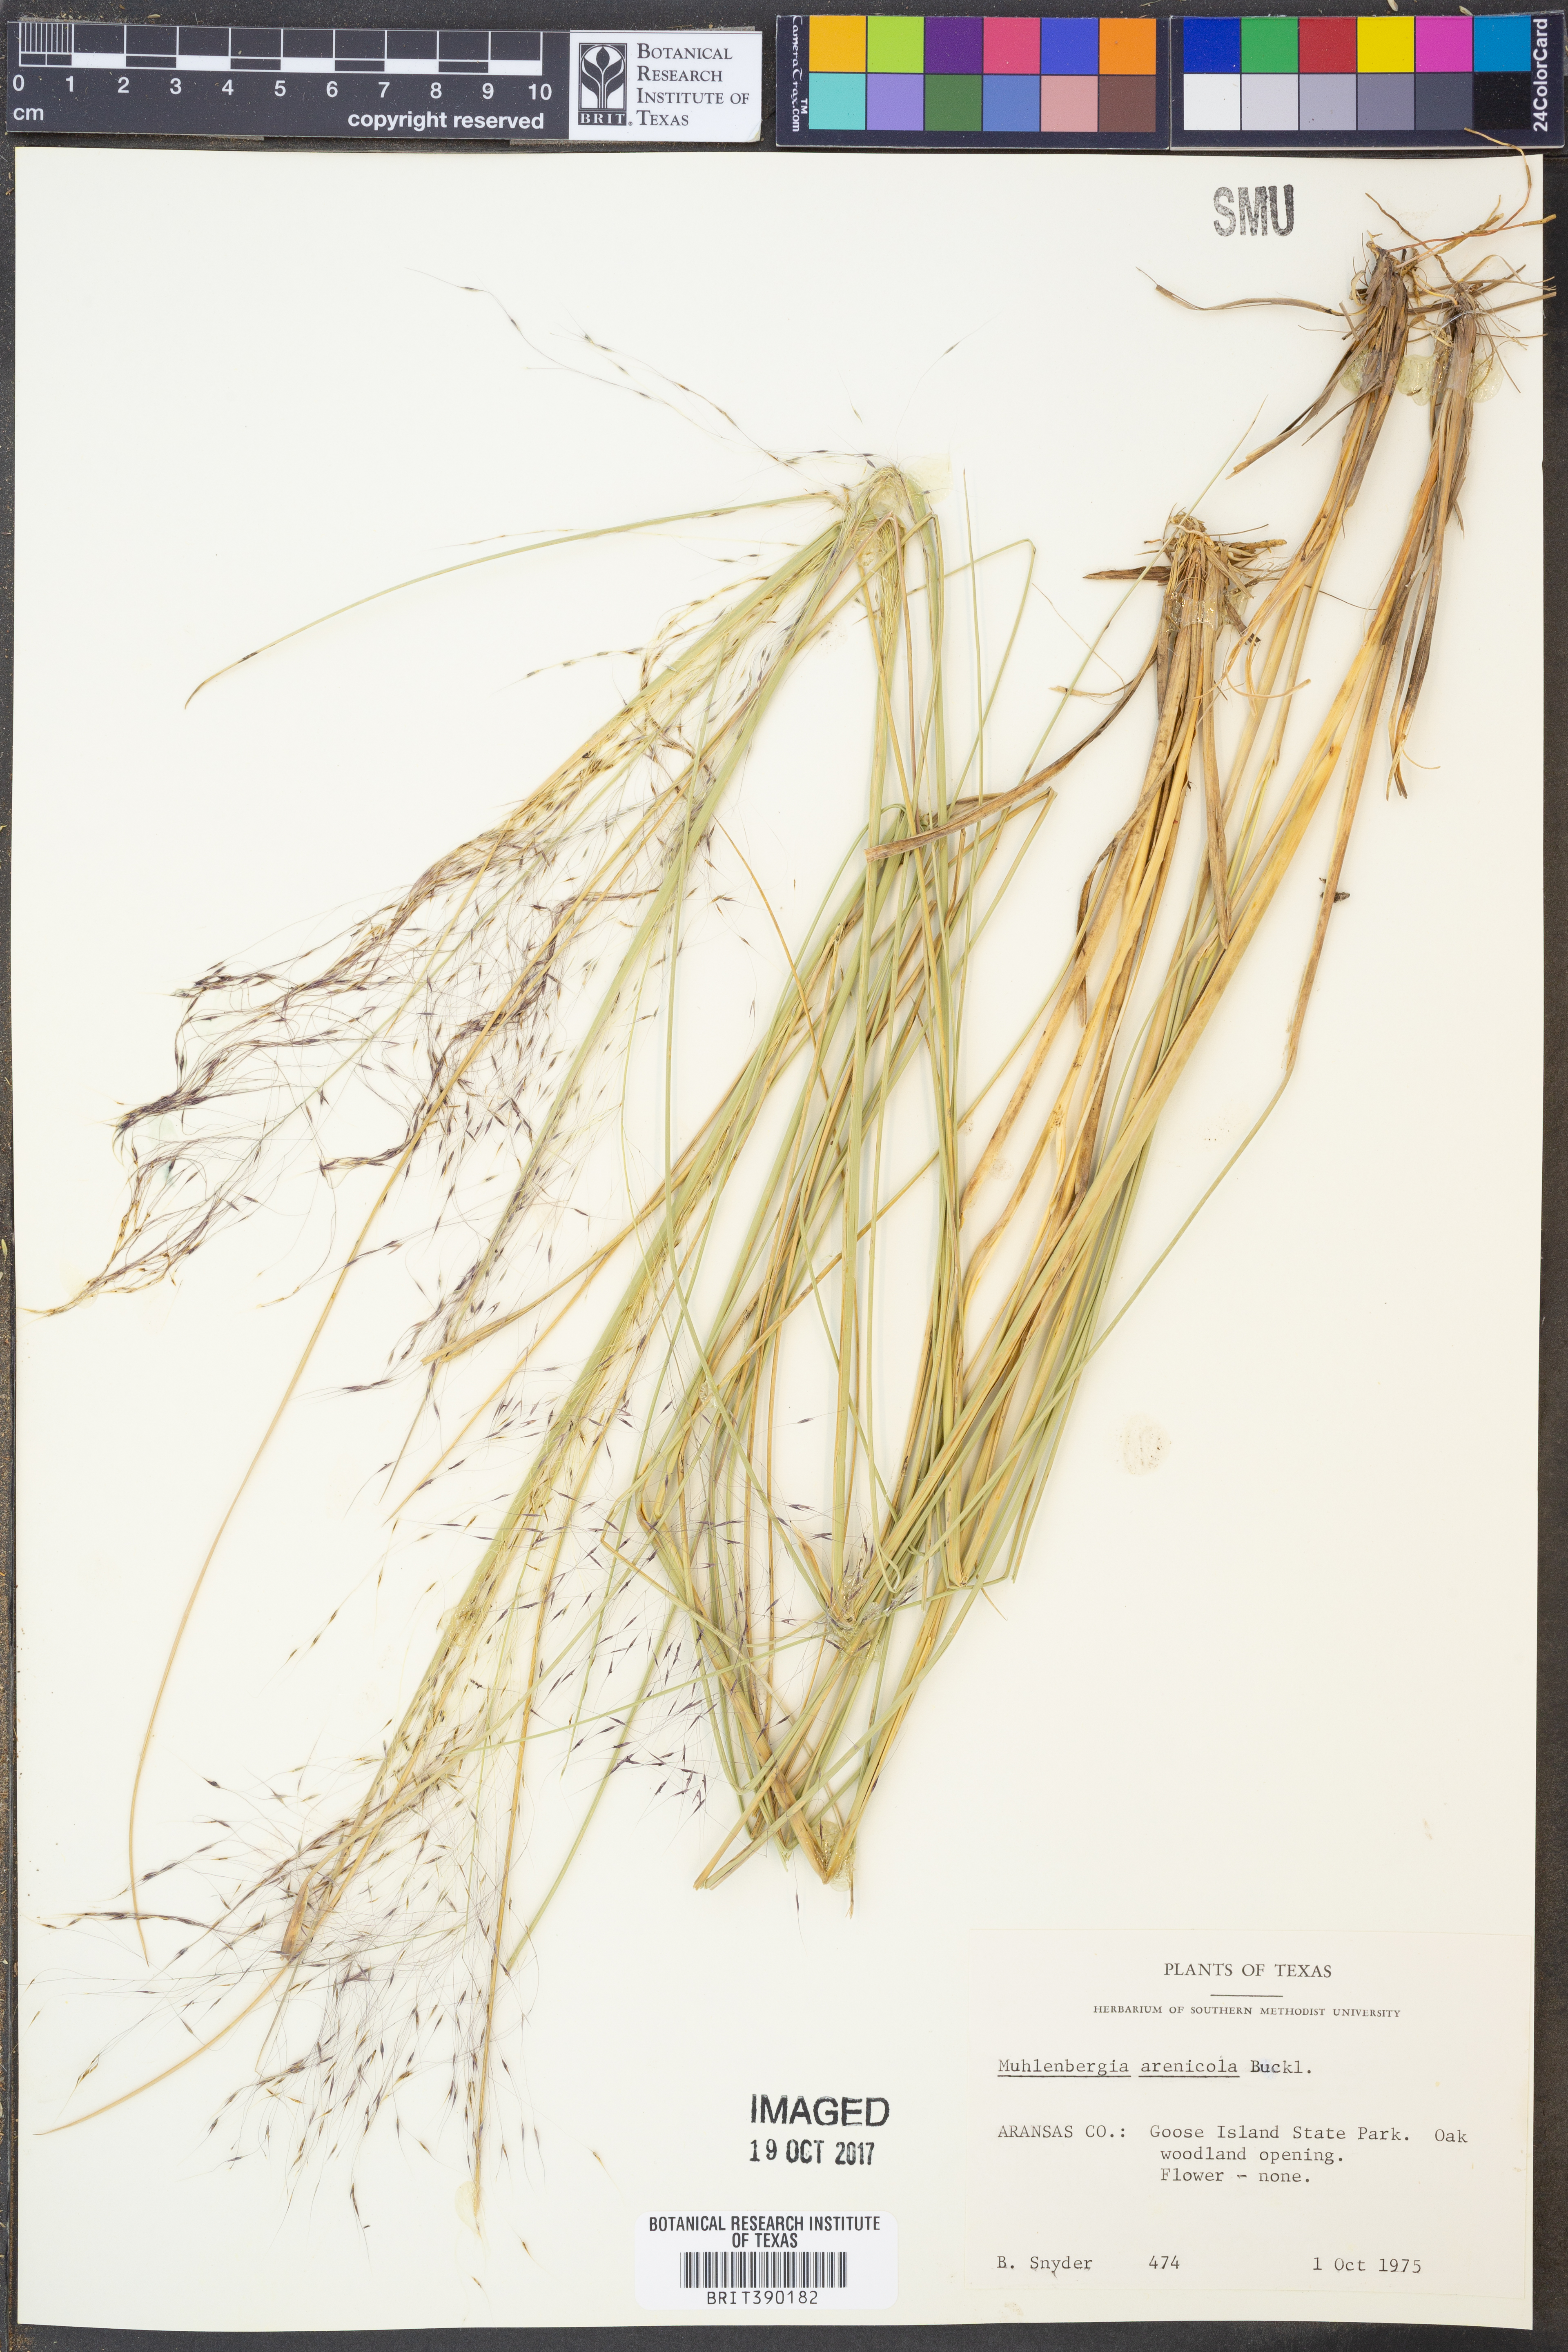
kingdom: Plantae
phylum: Tracheophyta
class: Liliopsida
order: Poales
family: Poaceae
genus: Muhlenbergia
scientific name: Muhlenbergia arenicola
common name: Sand muhly
